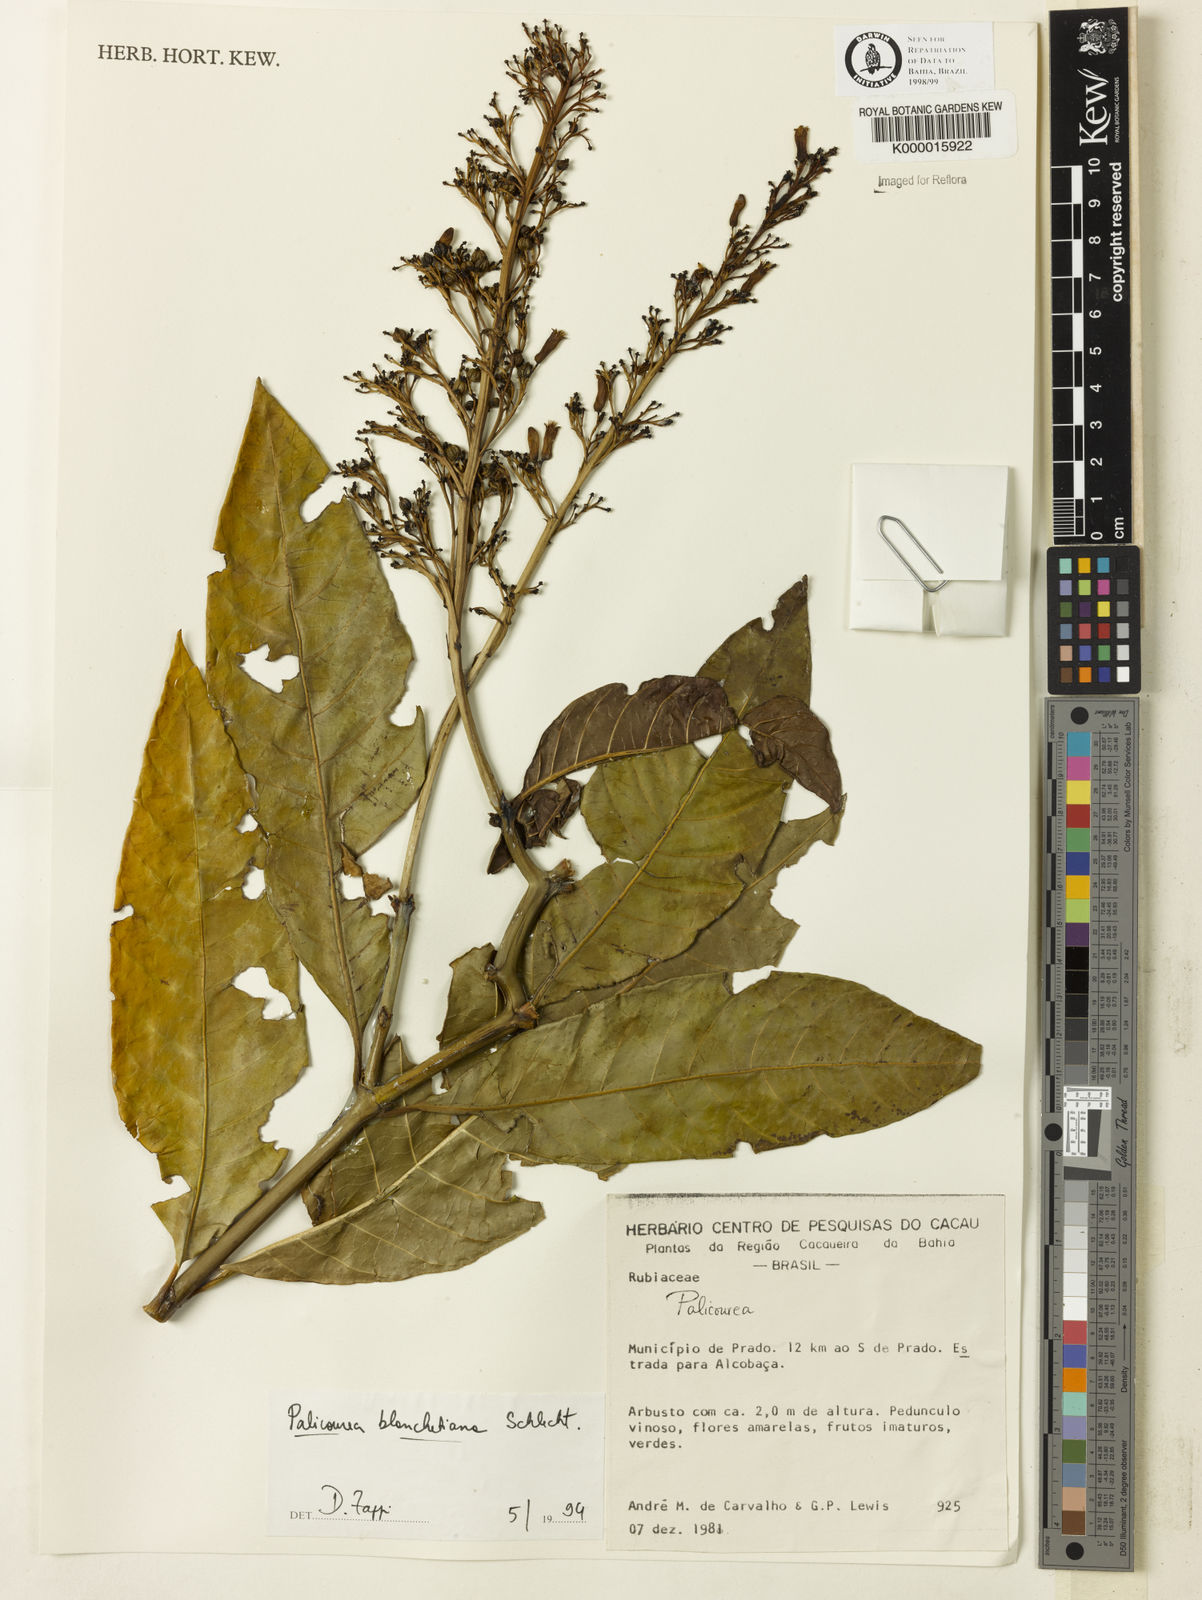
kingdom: Plantae
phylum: Tracheophyta
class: Magnoliopsida
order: Gentianales
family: Rubiaceae
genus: Palicourea
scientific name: Palicourea blanchetiana
